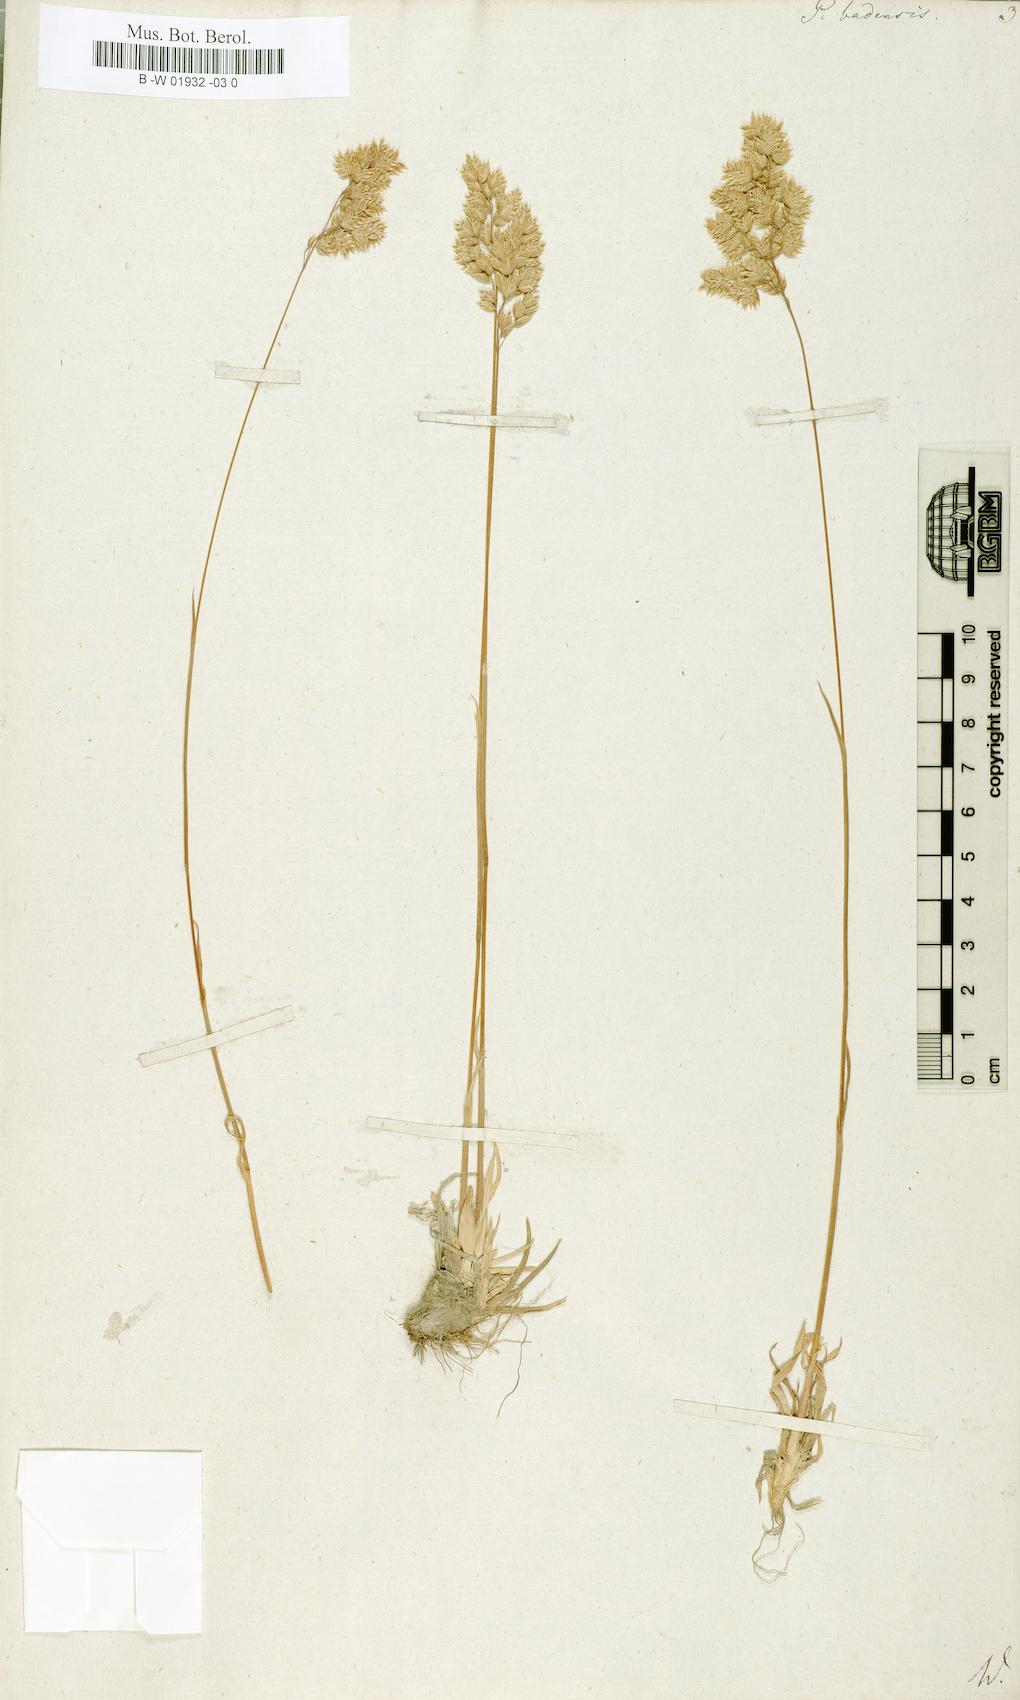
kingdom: Plantae
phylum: Tracheophyta
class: Liliopsida
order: Poales
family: Poaceae
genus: Poa
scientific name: Poa badensis
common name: Baden's bluegrass
